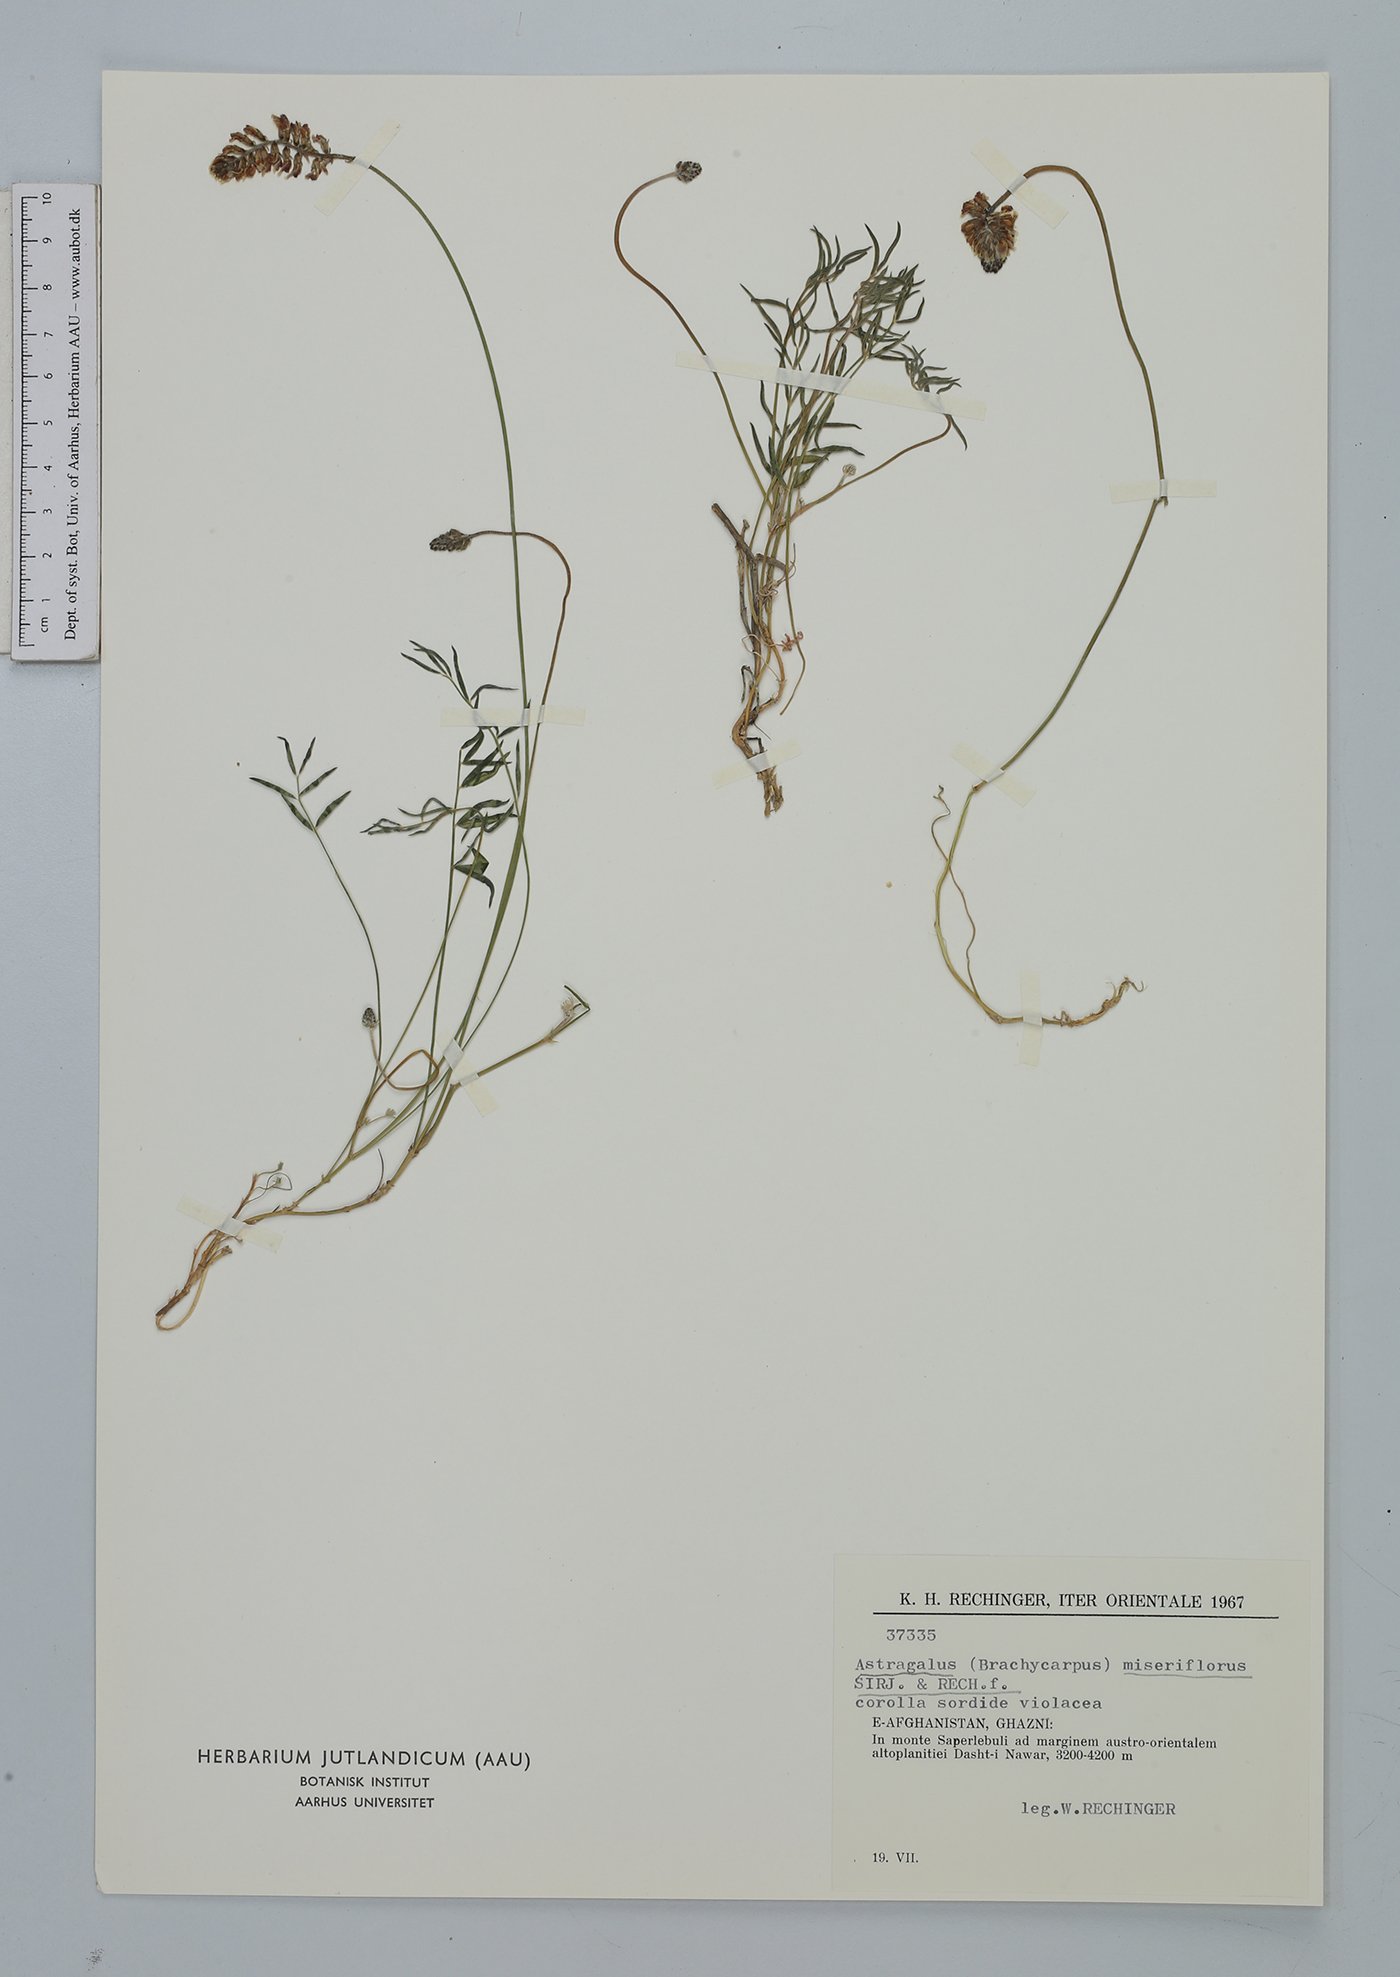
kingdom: Plantae
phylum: Tracheophyta
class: Magnoliopsida
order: Fabales
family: Fabaceae
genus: Astragalus
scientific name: Astragalus miseriflorus
